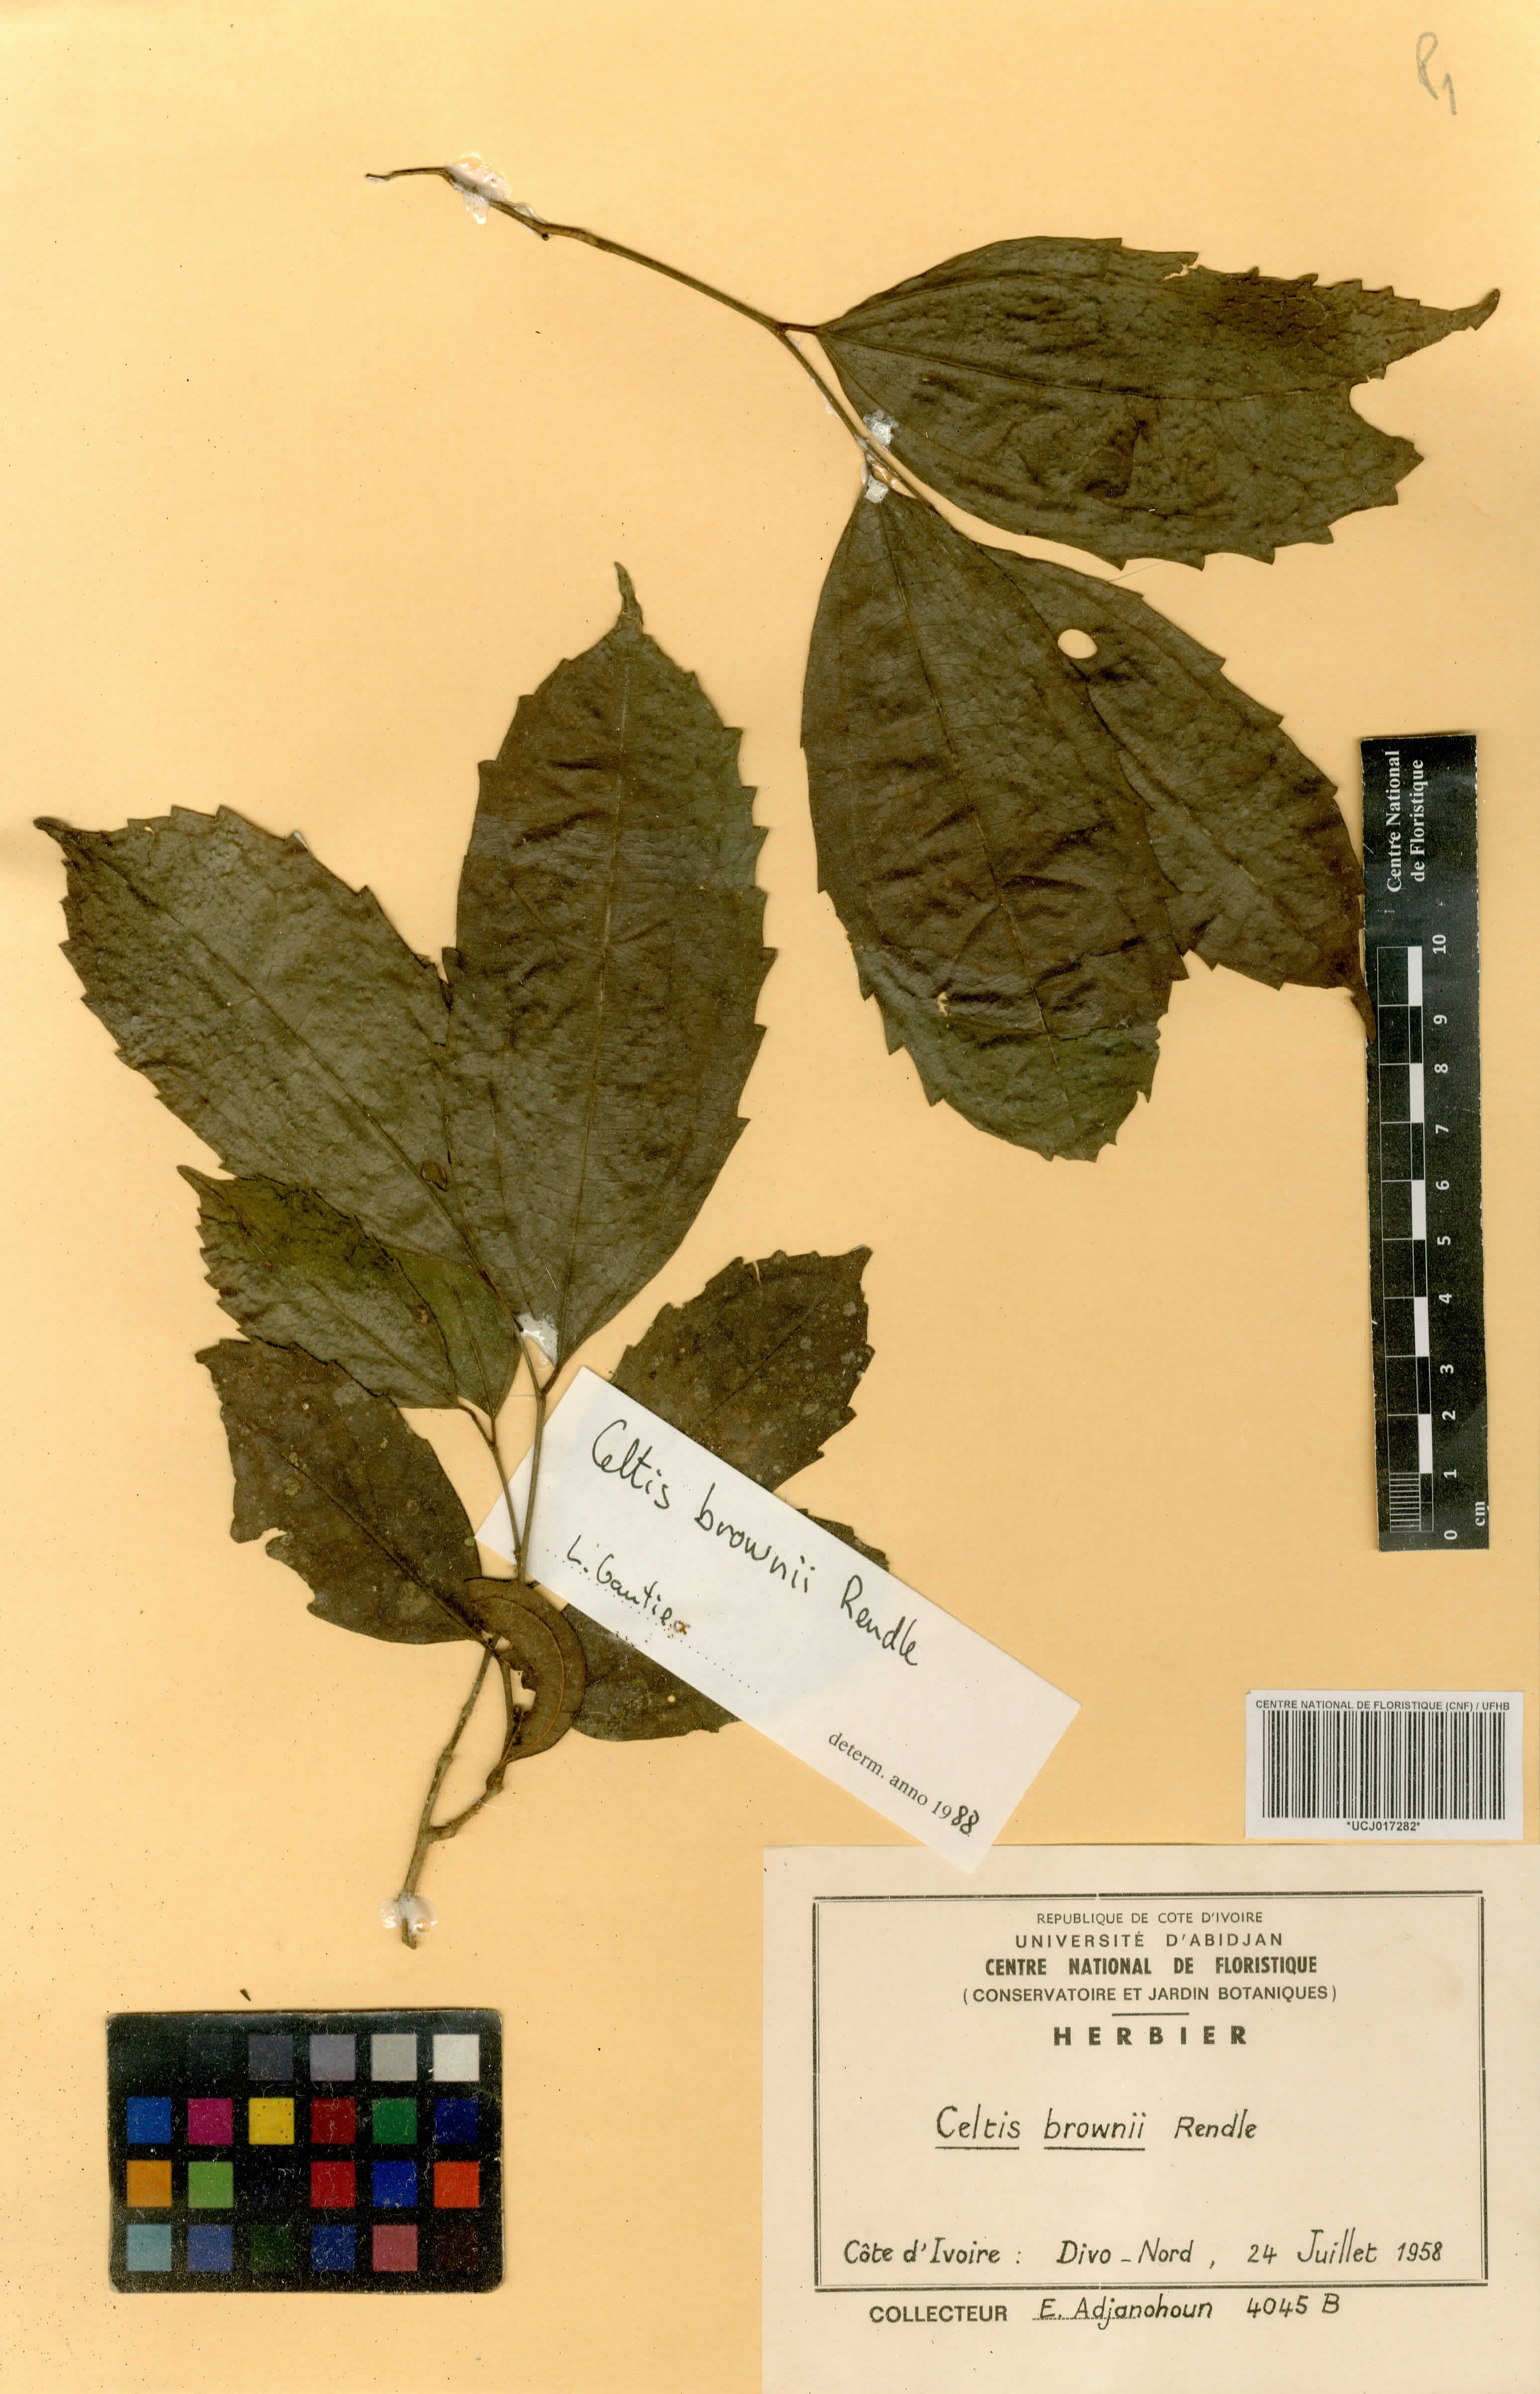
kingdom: Plantae
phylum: Tracheophyta
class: Magnoliopsida
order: Rosales
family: Cannabaceae
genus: Celtis
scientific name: Celtis philippensis
